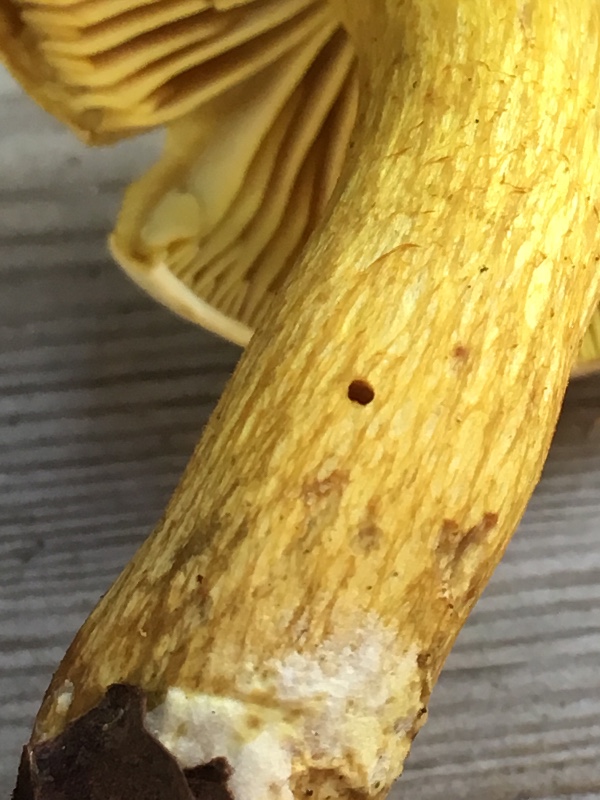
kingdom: Fungi
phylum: Basidiomycota
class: Agaricomycetes
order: Agaricales
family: Tricholomataceae
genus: Tricholoma
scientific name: Tricholoma sulphureum
